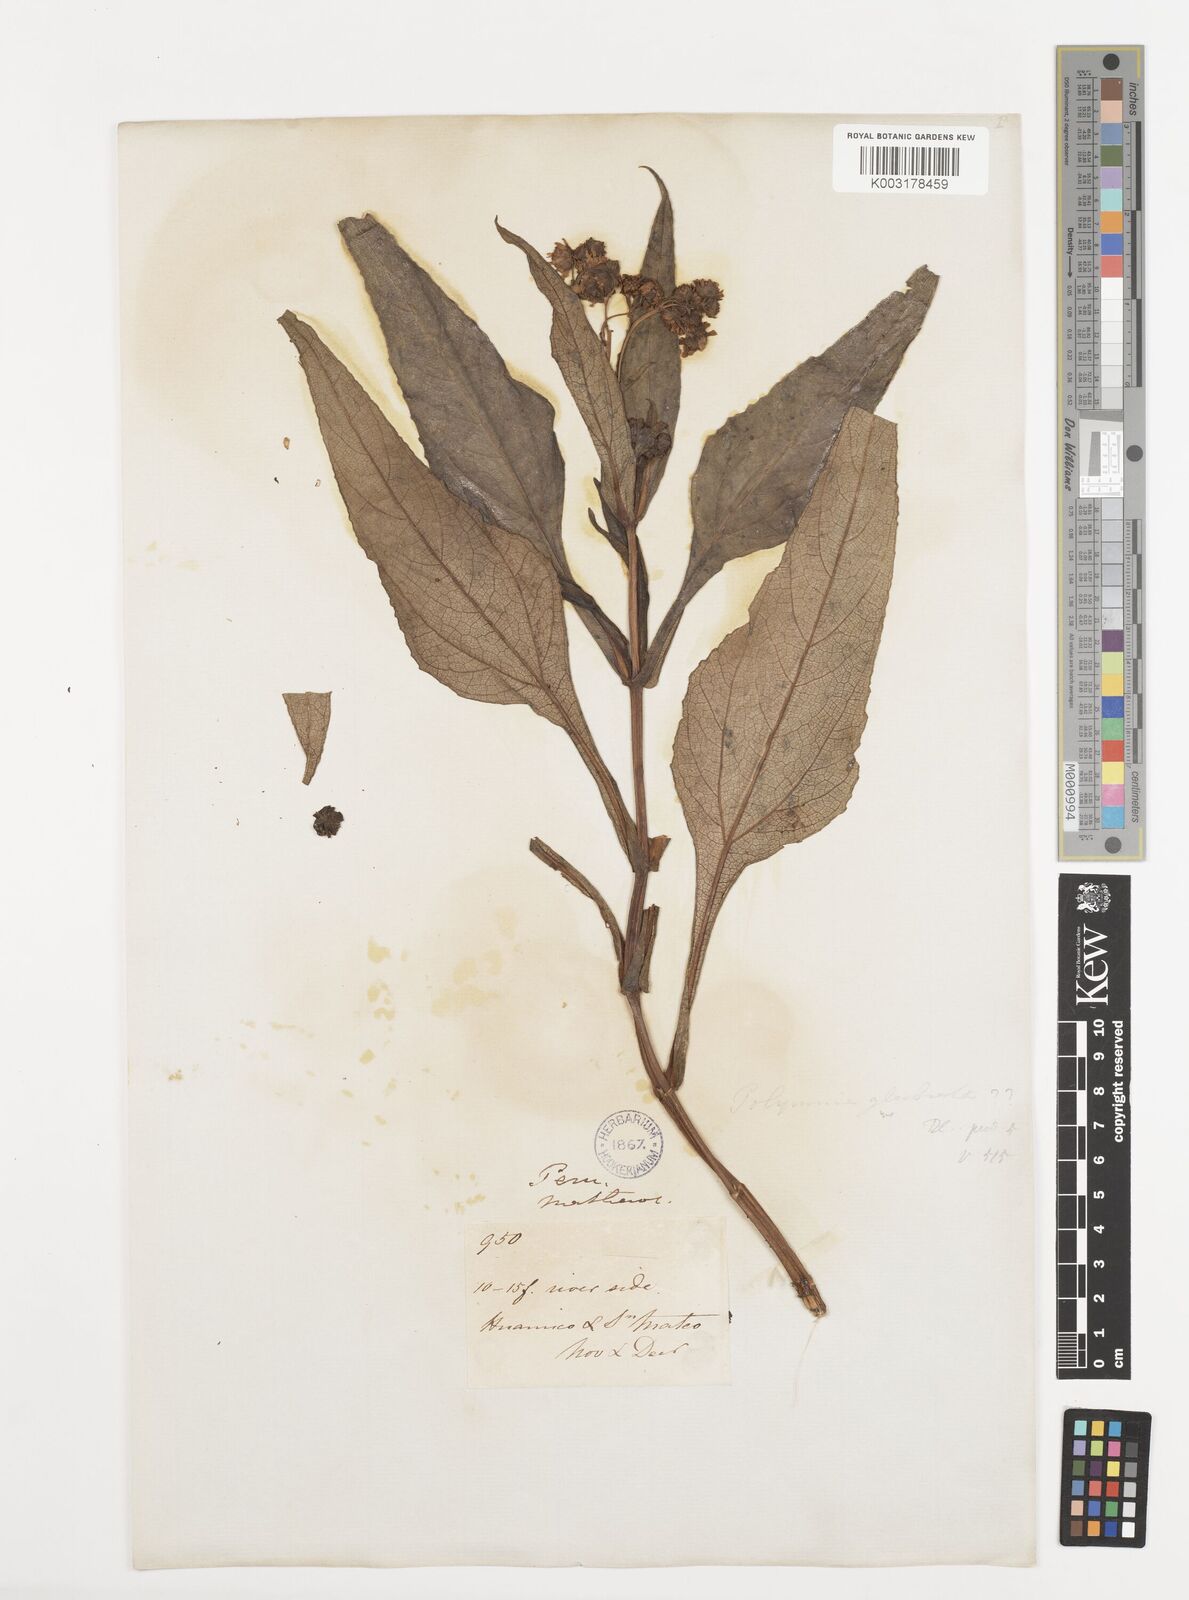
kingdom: Plantae
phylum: Tracheophyta
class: Magnoliopsida
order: Asterales
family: Asteraceae
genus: Smallanthus
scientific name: Smallanthus glabratus
